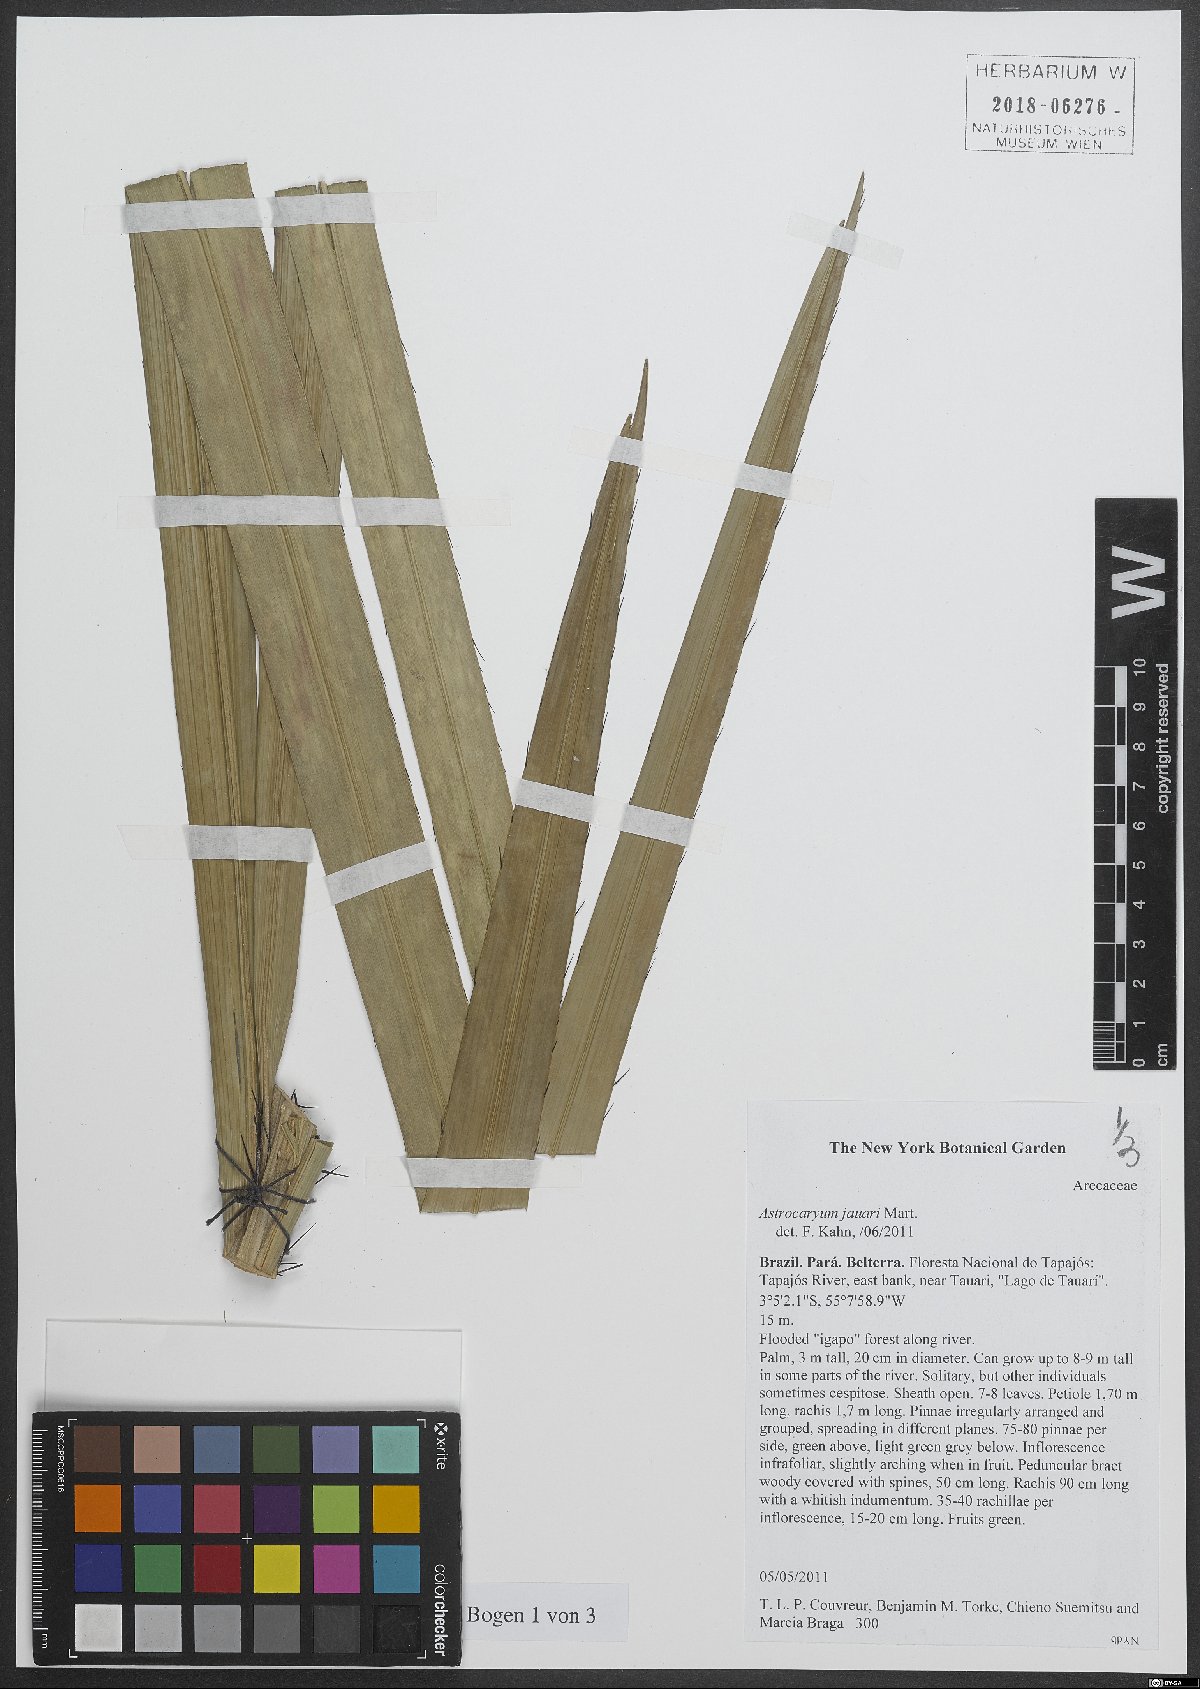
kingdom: Plantae
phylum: Tracheophyta
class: Liliopsida
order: Arecales
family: Arecaceae
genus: Astrocaryum
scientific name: Astrocaryum jauari
